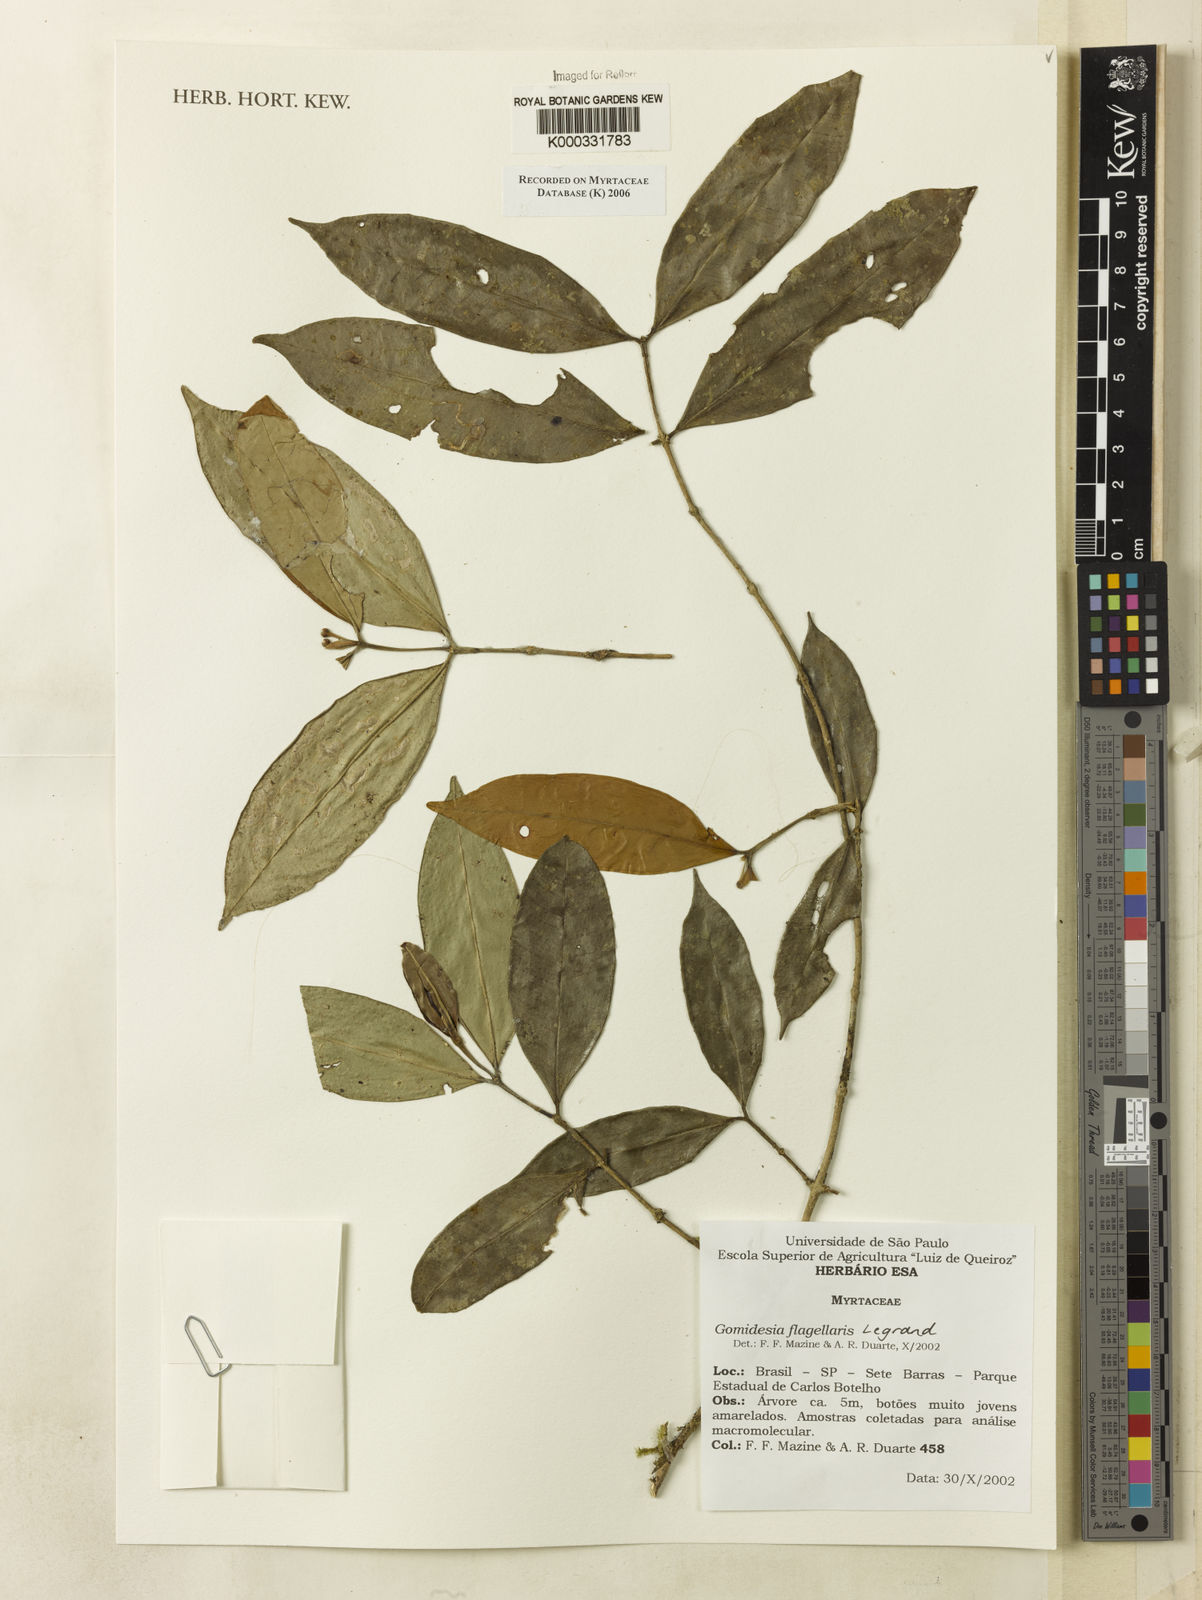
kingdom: Plantae
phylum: Tracheophyta
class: Magnoliopsida
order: Myrtales
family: Myrtaceae
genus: Myrcia
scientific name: Myrcia flagellaris
